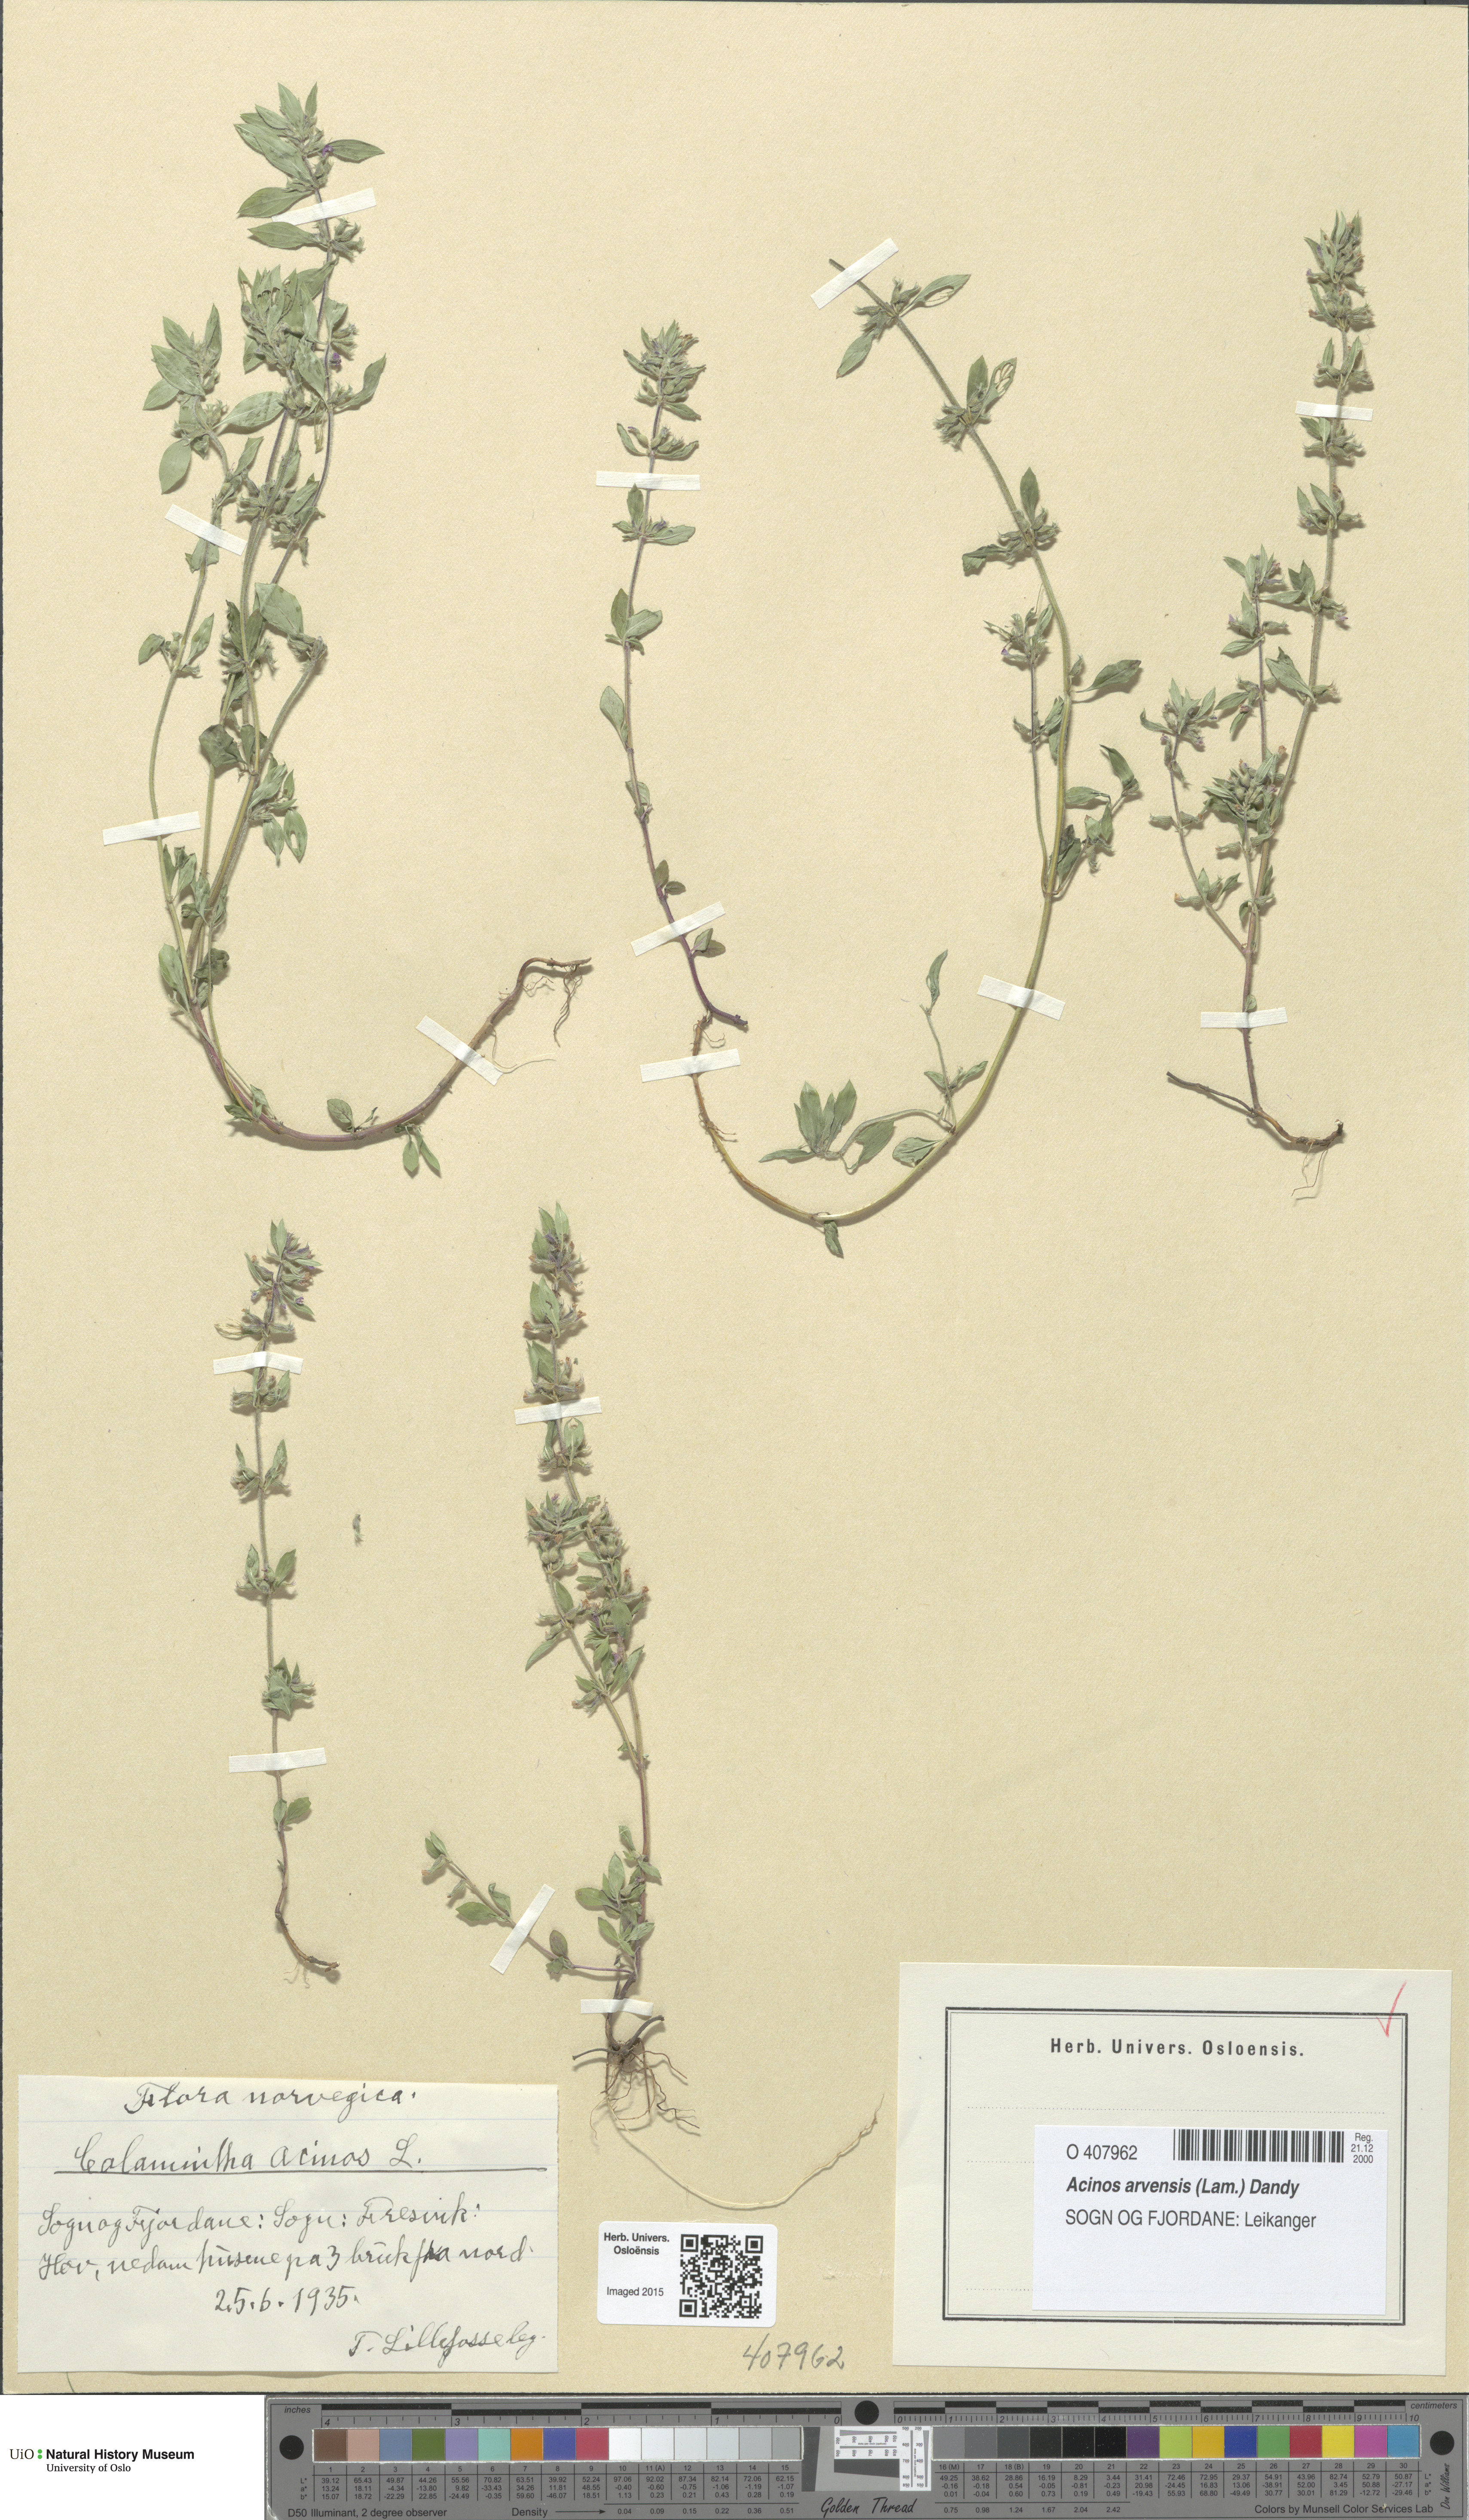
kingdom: Plantae
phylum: Tracheophyta
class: Magnoliopsida
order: Lamiales
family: Lamiaceae
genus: Clinopodium
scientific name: Clinopodium acinos
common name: Basil thyme
